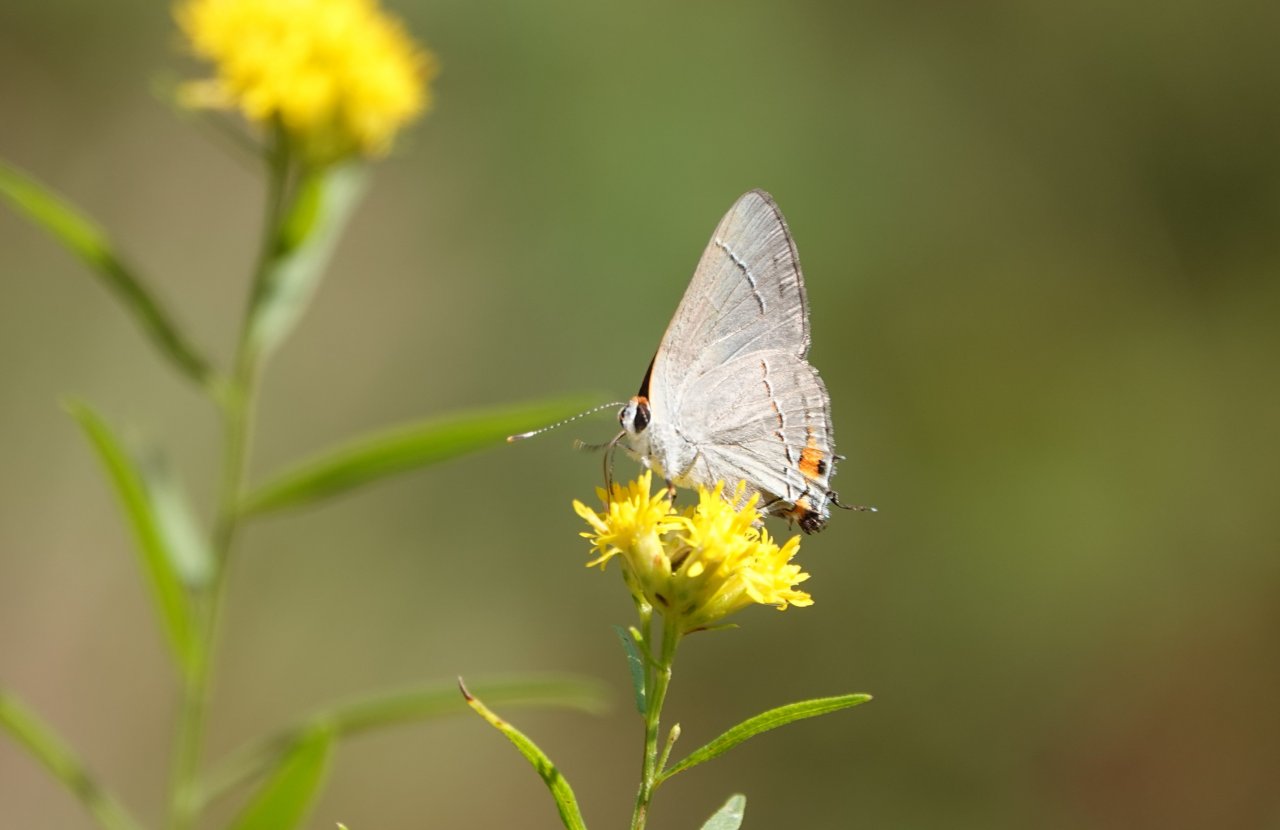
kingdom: Animalia
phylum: Arthropoda
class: Insecta
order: Lepidoptera
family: Lycaenidae
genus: Strymon
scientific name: Strymon melinus
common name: Gray Hairstreak
